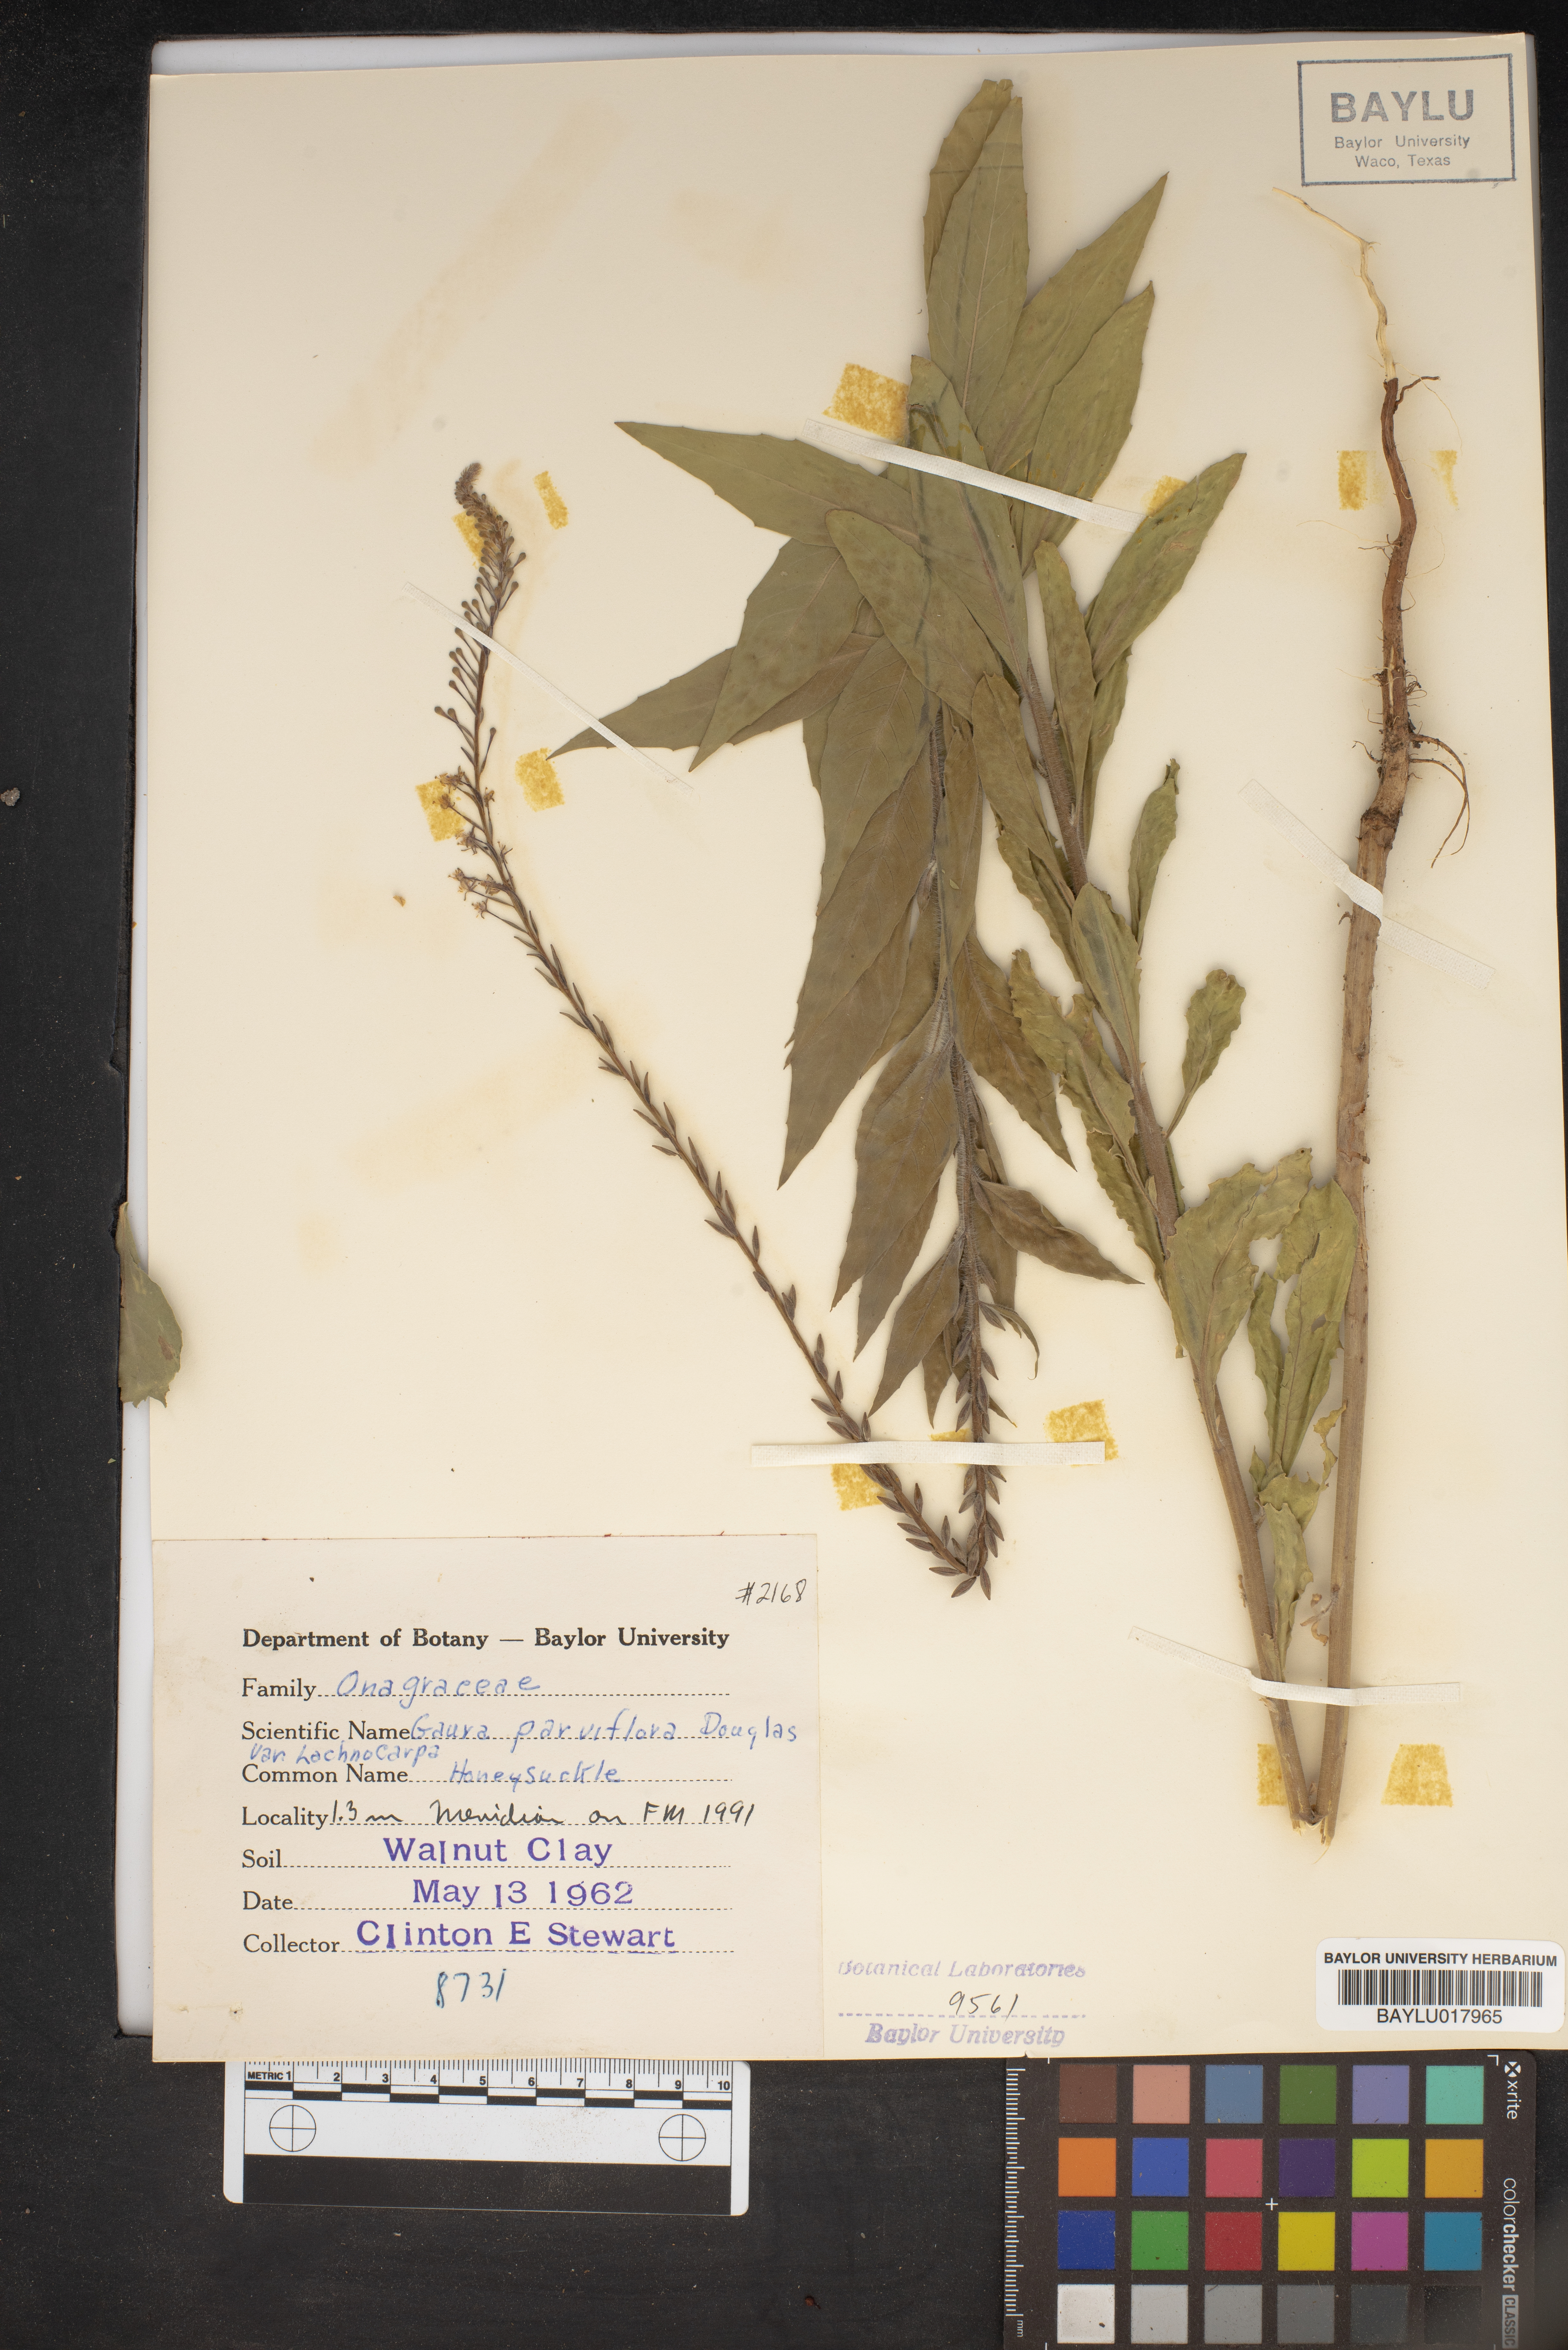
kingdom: Plantae
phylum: Tracheophyta
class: Magnoliopsida
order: Myrtales
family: Onagraceae
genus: Oenothera
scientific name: Oenothera curtiflora
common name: Velvetweed
